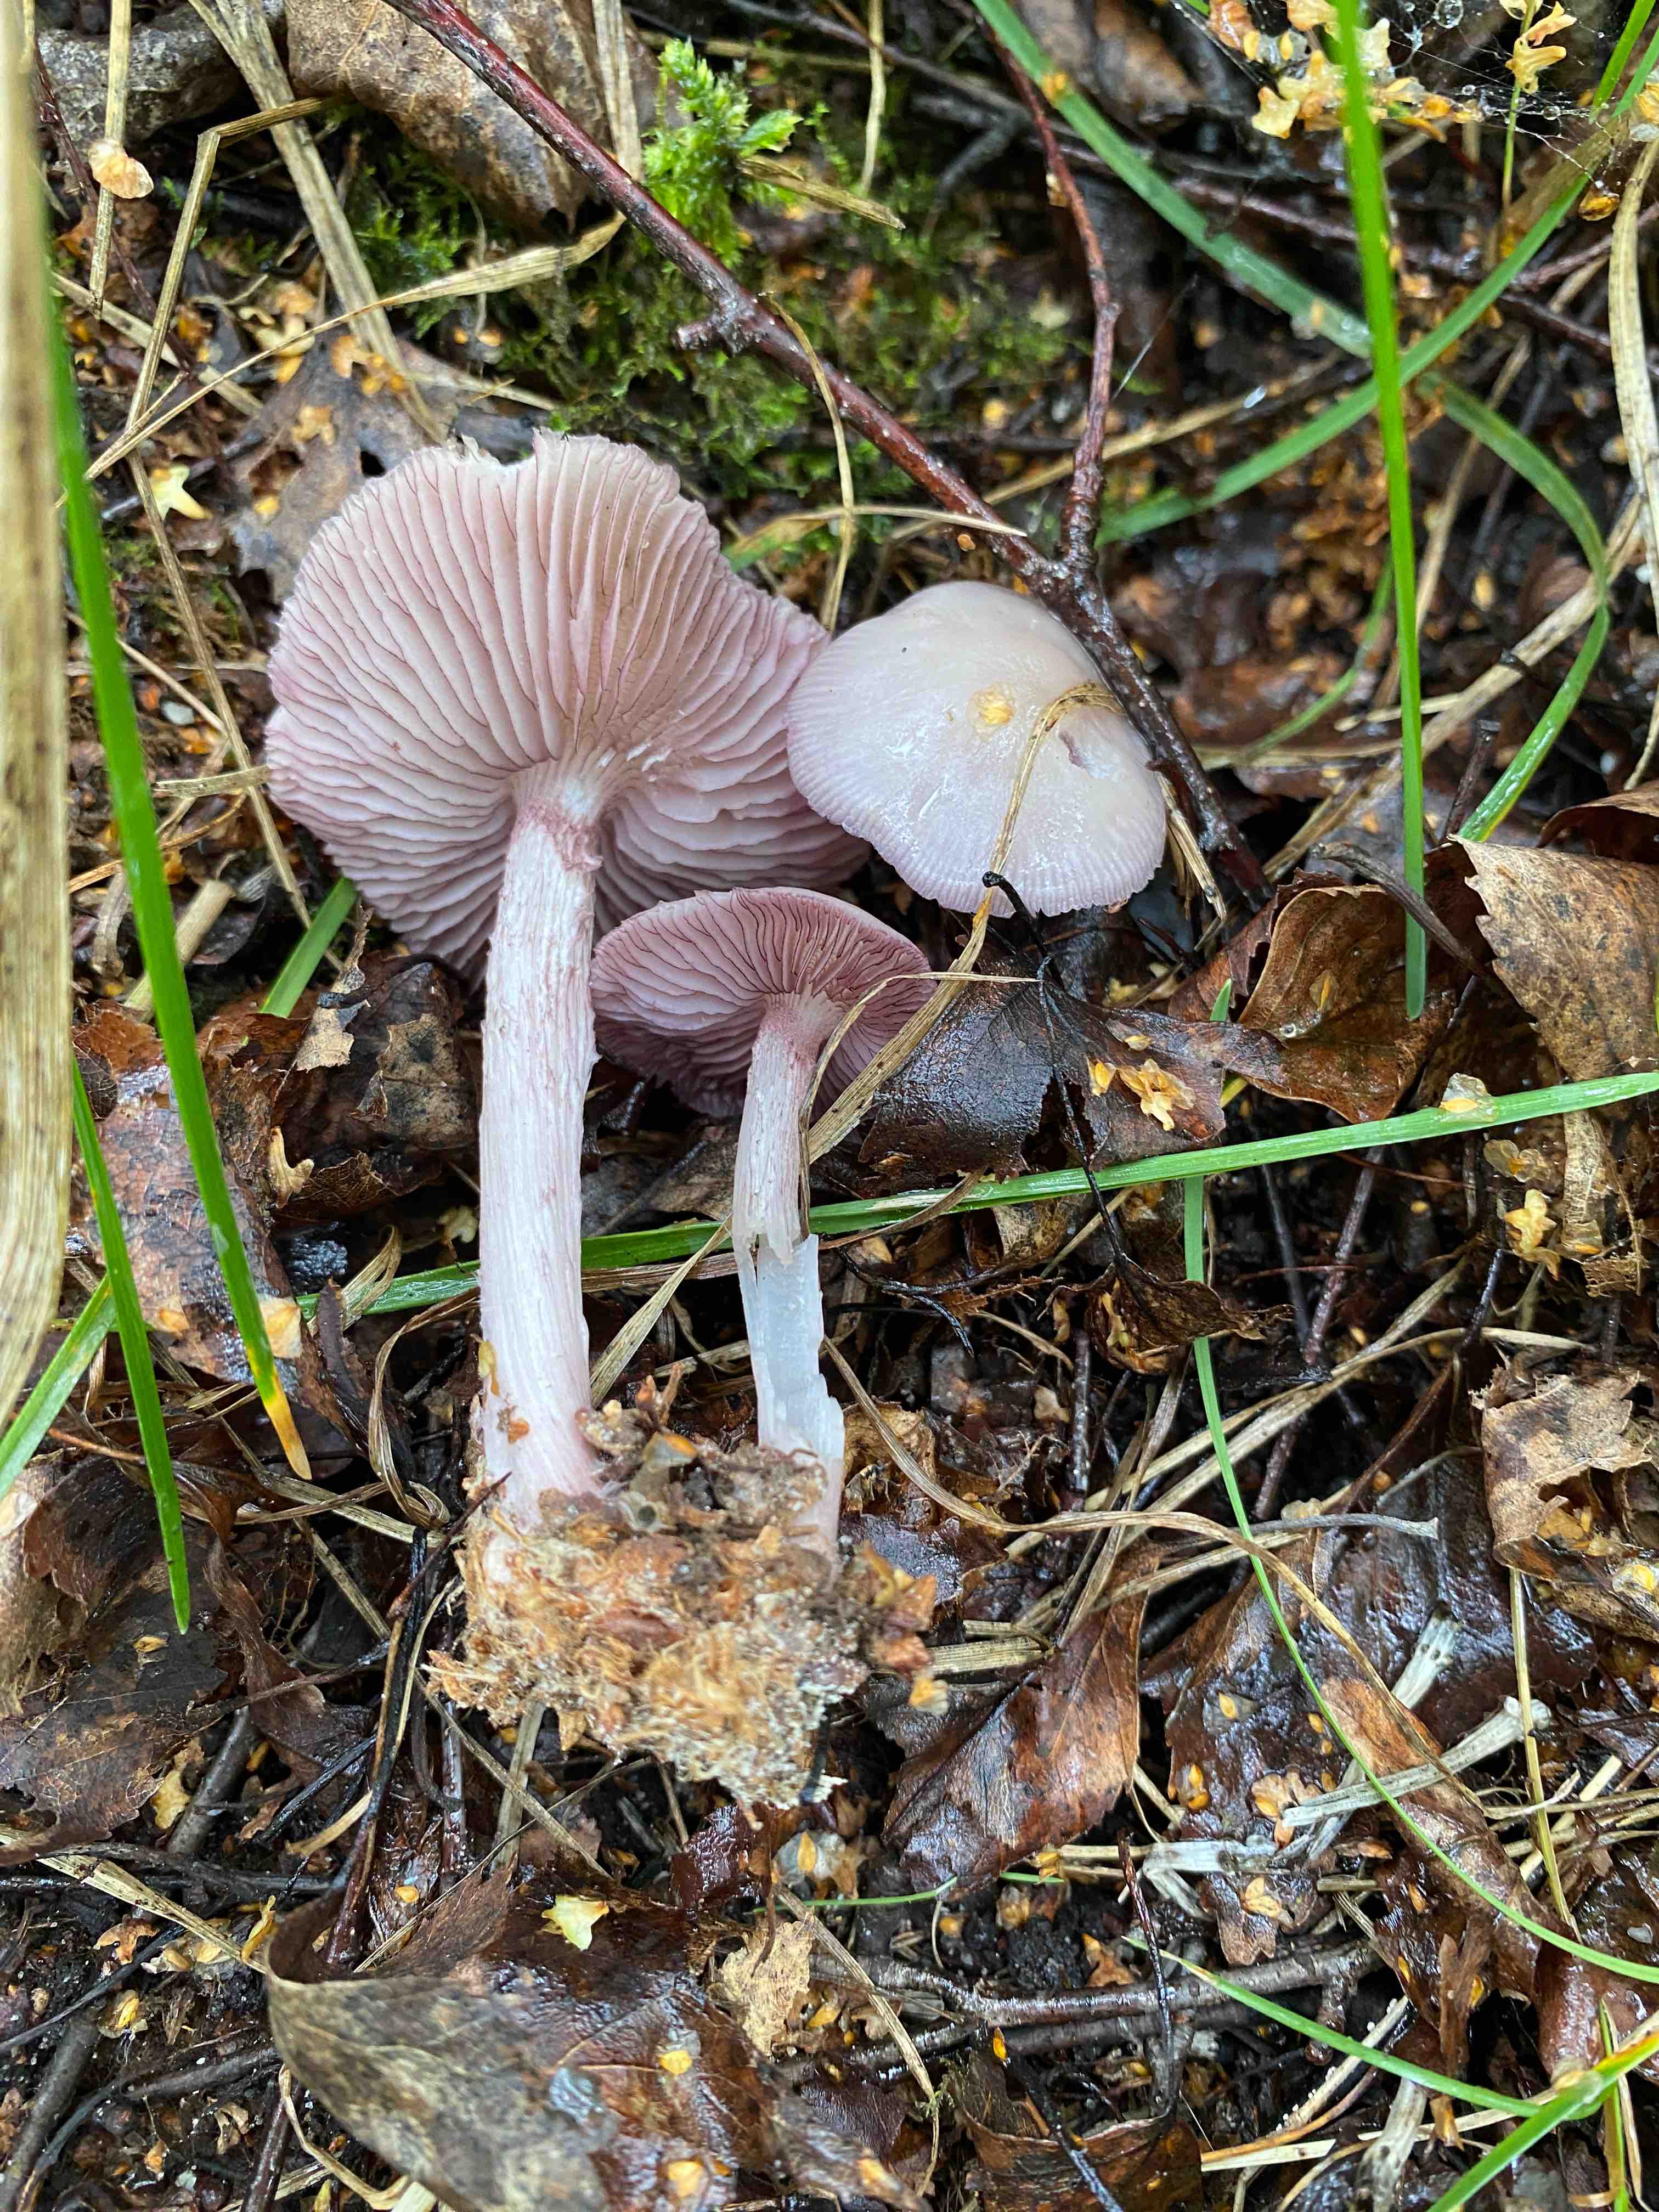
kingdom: Fungi
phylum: Basidiomycota
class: Agaricomycetes
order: Agaricales
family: Mycenaceae
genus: Mycena
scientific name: Mycena pelianthina
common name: mørkbladet huesvamp
